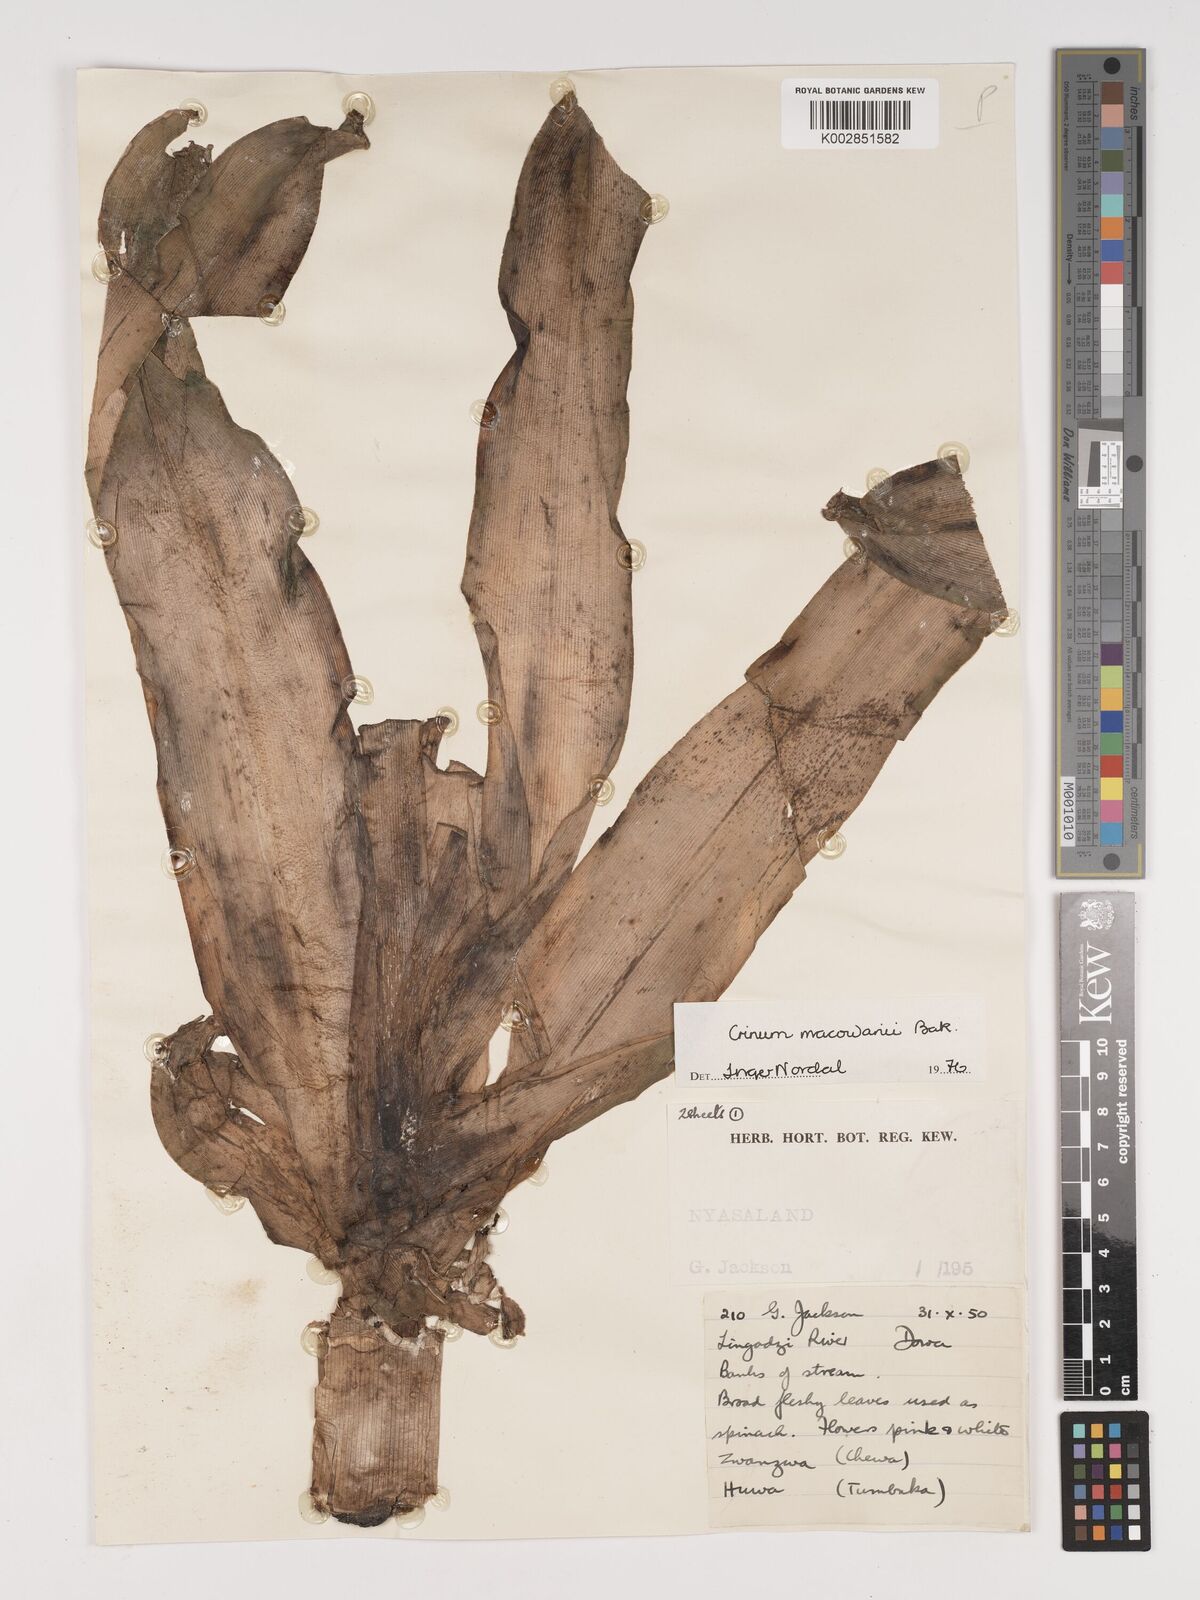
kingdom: Plantae
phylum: Tracheophyta
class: Liliopsida
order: Asparagales
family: Amaryllidaceae
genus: Crinum
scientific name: Crinum macowanii
